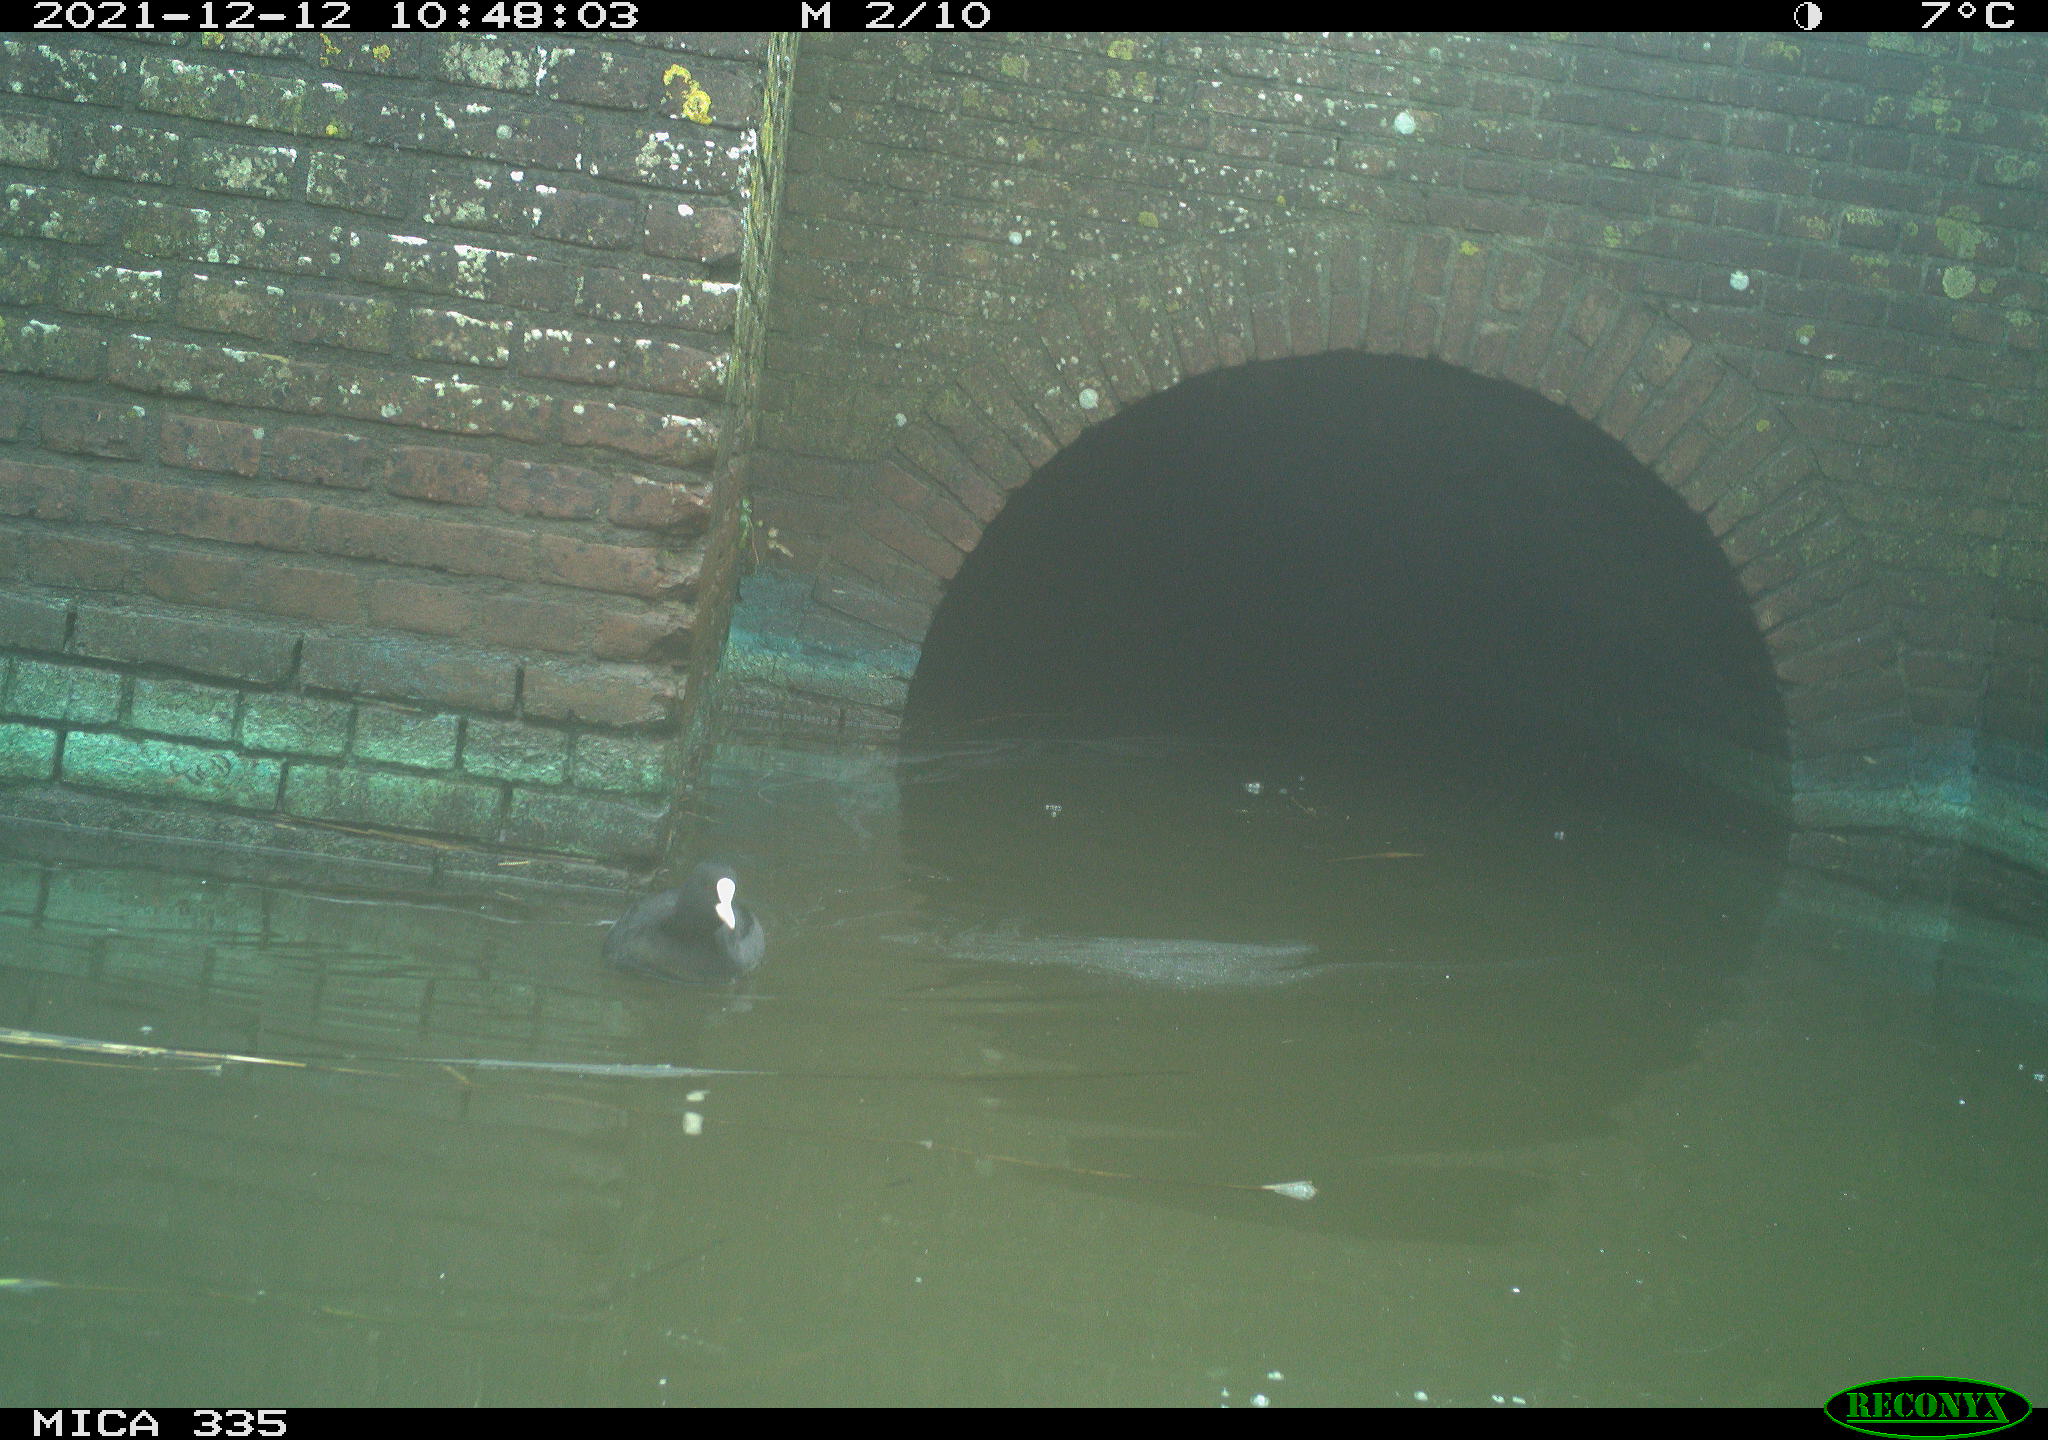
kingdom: Animalia
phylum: Chordata
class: Aves
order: Gruiformes
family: Rallidae
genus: Fulica
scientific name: Fulica atra
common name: Eurasian coot
